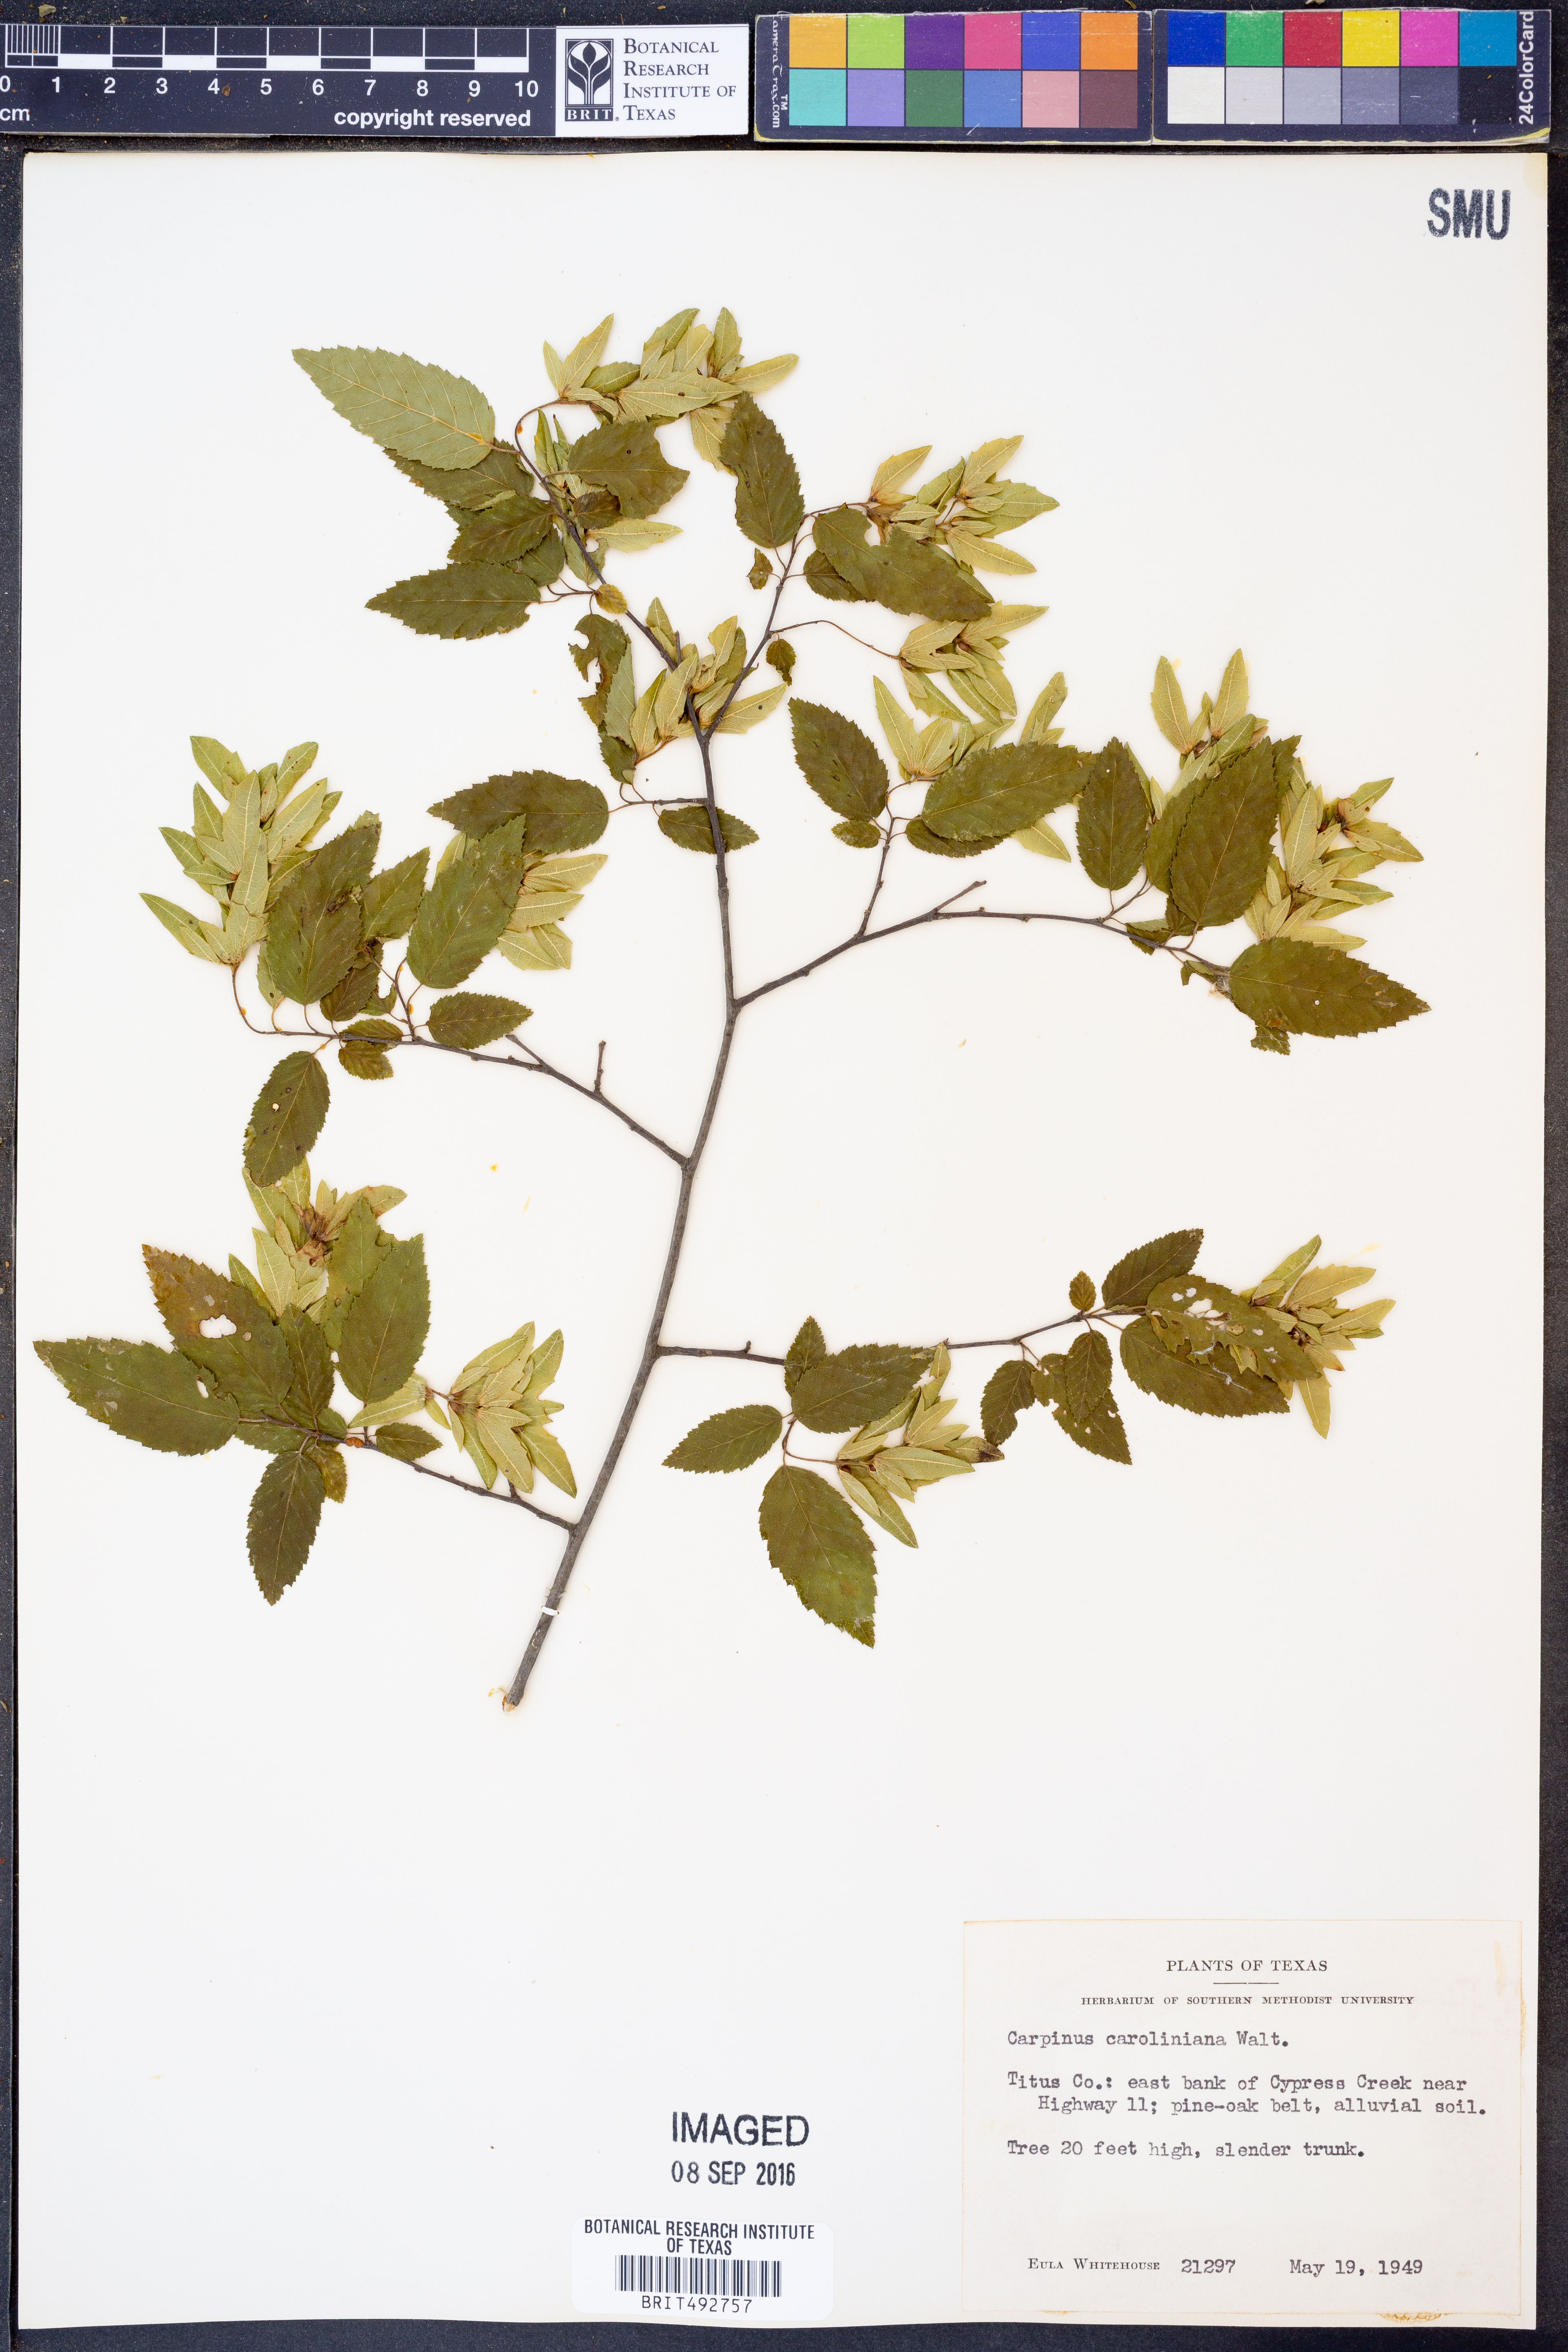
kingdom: Plantae
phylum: Tracheophyta
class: Magnoliopsida
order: Fagales
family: Betulaceae
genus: Carpinus
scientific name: Carpinus caroliniana
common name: American hornbeam
